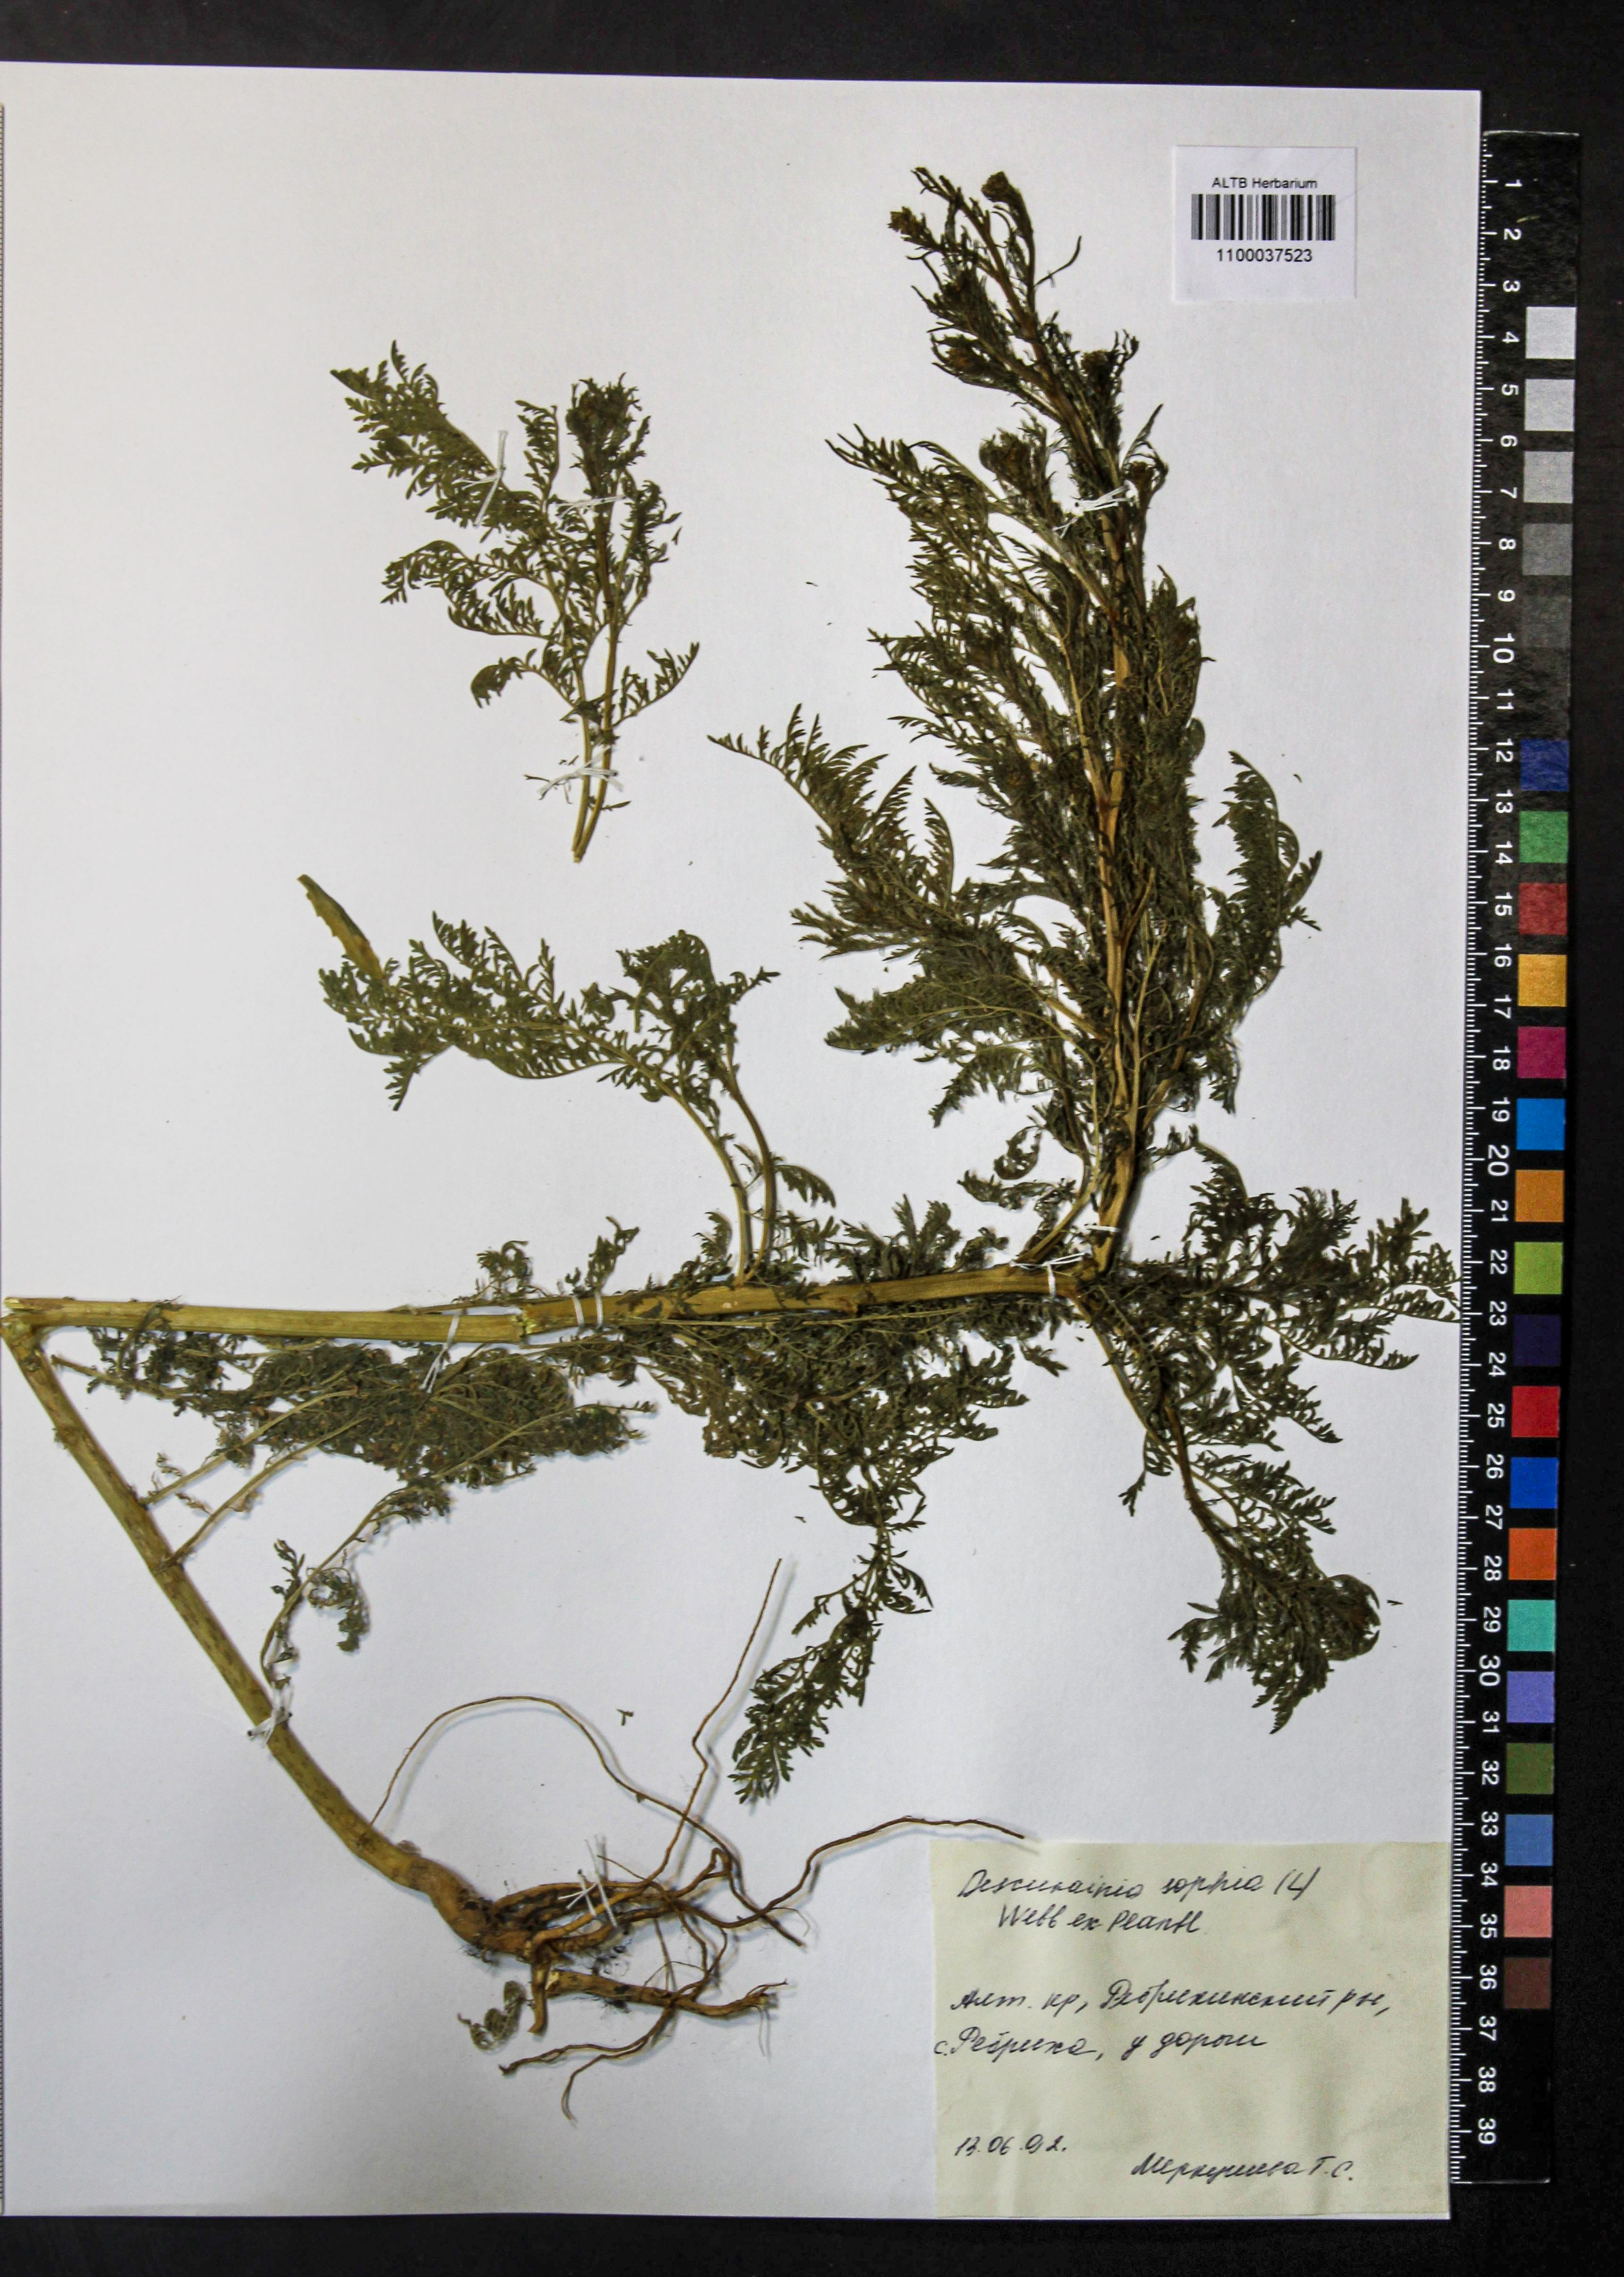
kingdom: Plantae
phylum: Tracheophyta
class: Magnoliopsida
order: Brassicales
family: Brassicaceae
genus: Descurainia
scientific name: Descurainia sophia
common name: Flixweed
